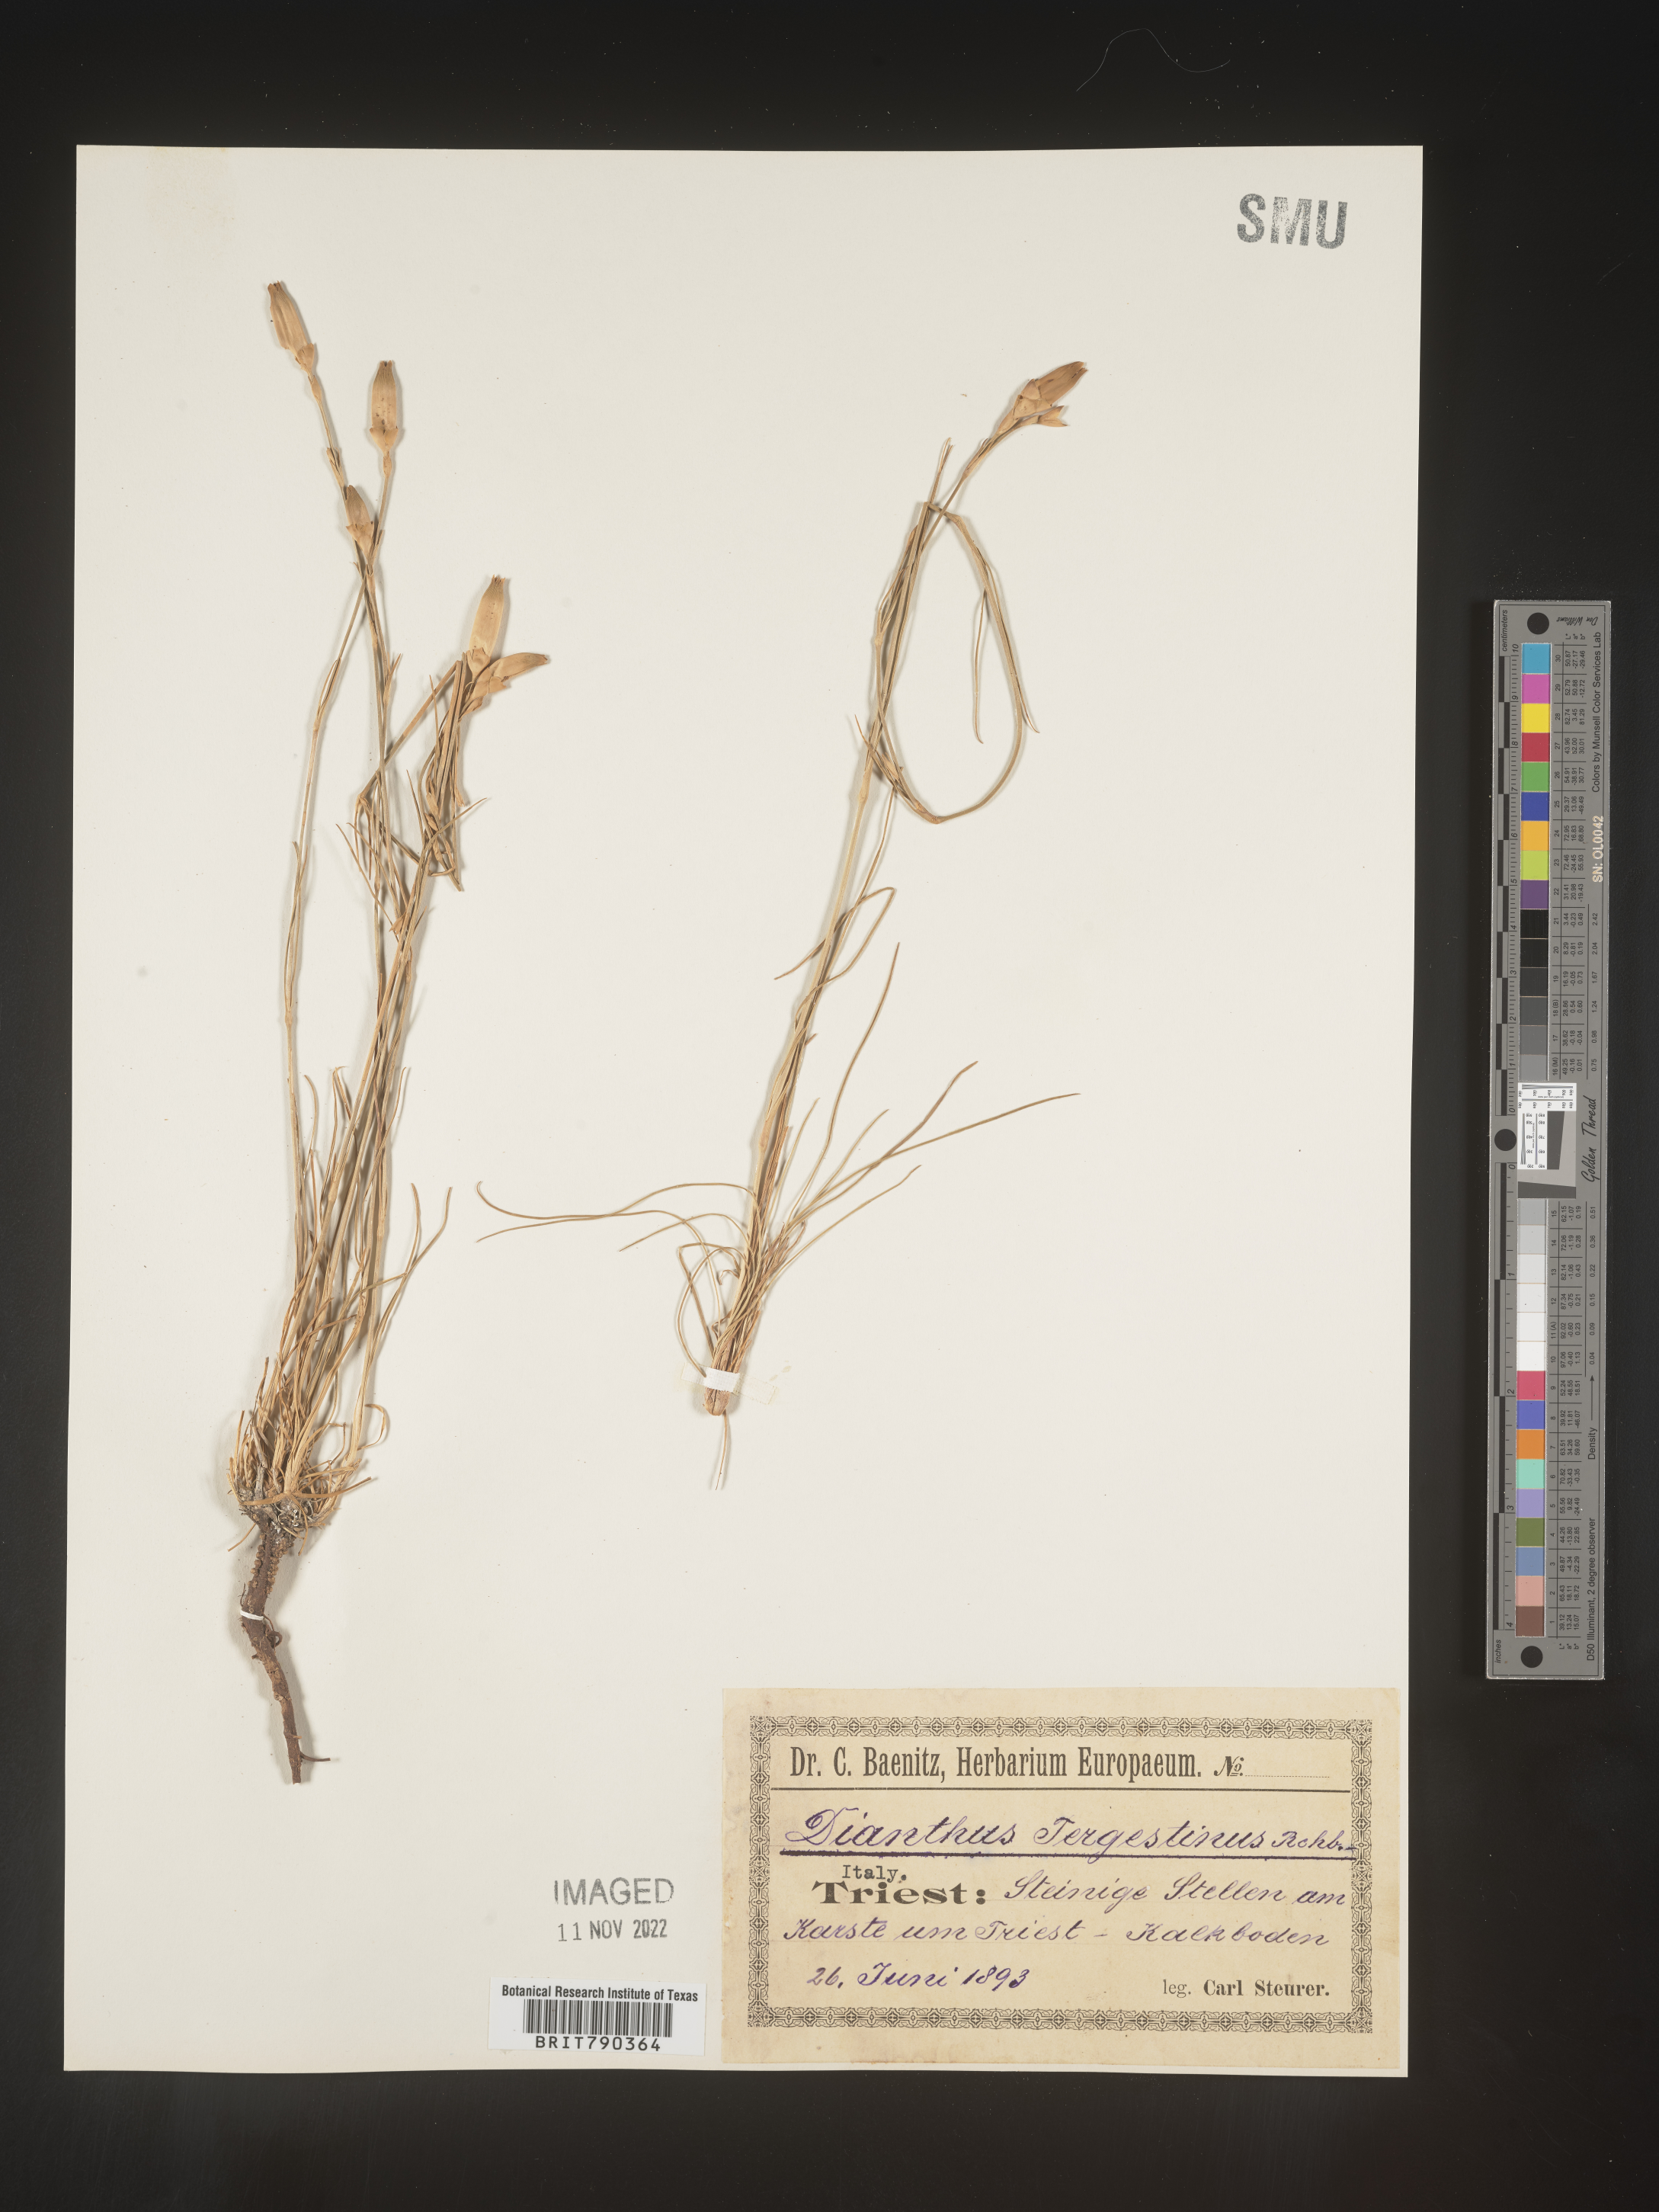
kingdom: Plantae
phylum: Tracheophyta
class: Magnoliopsida
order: Caryophyllales
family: Caryophyllaceae
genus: Dianthus
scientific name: Dianthus
